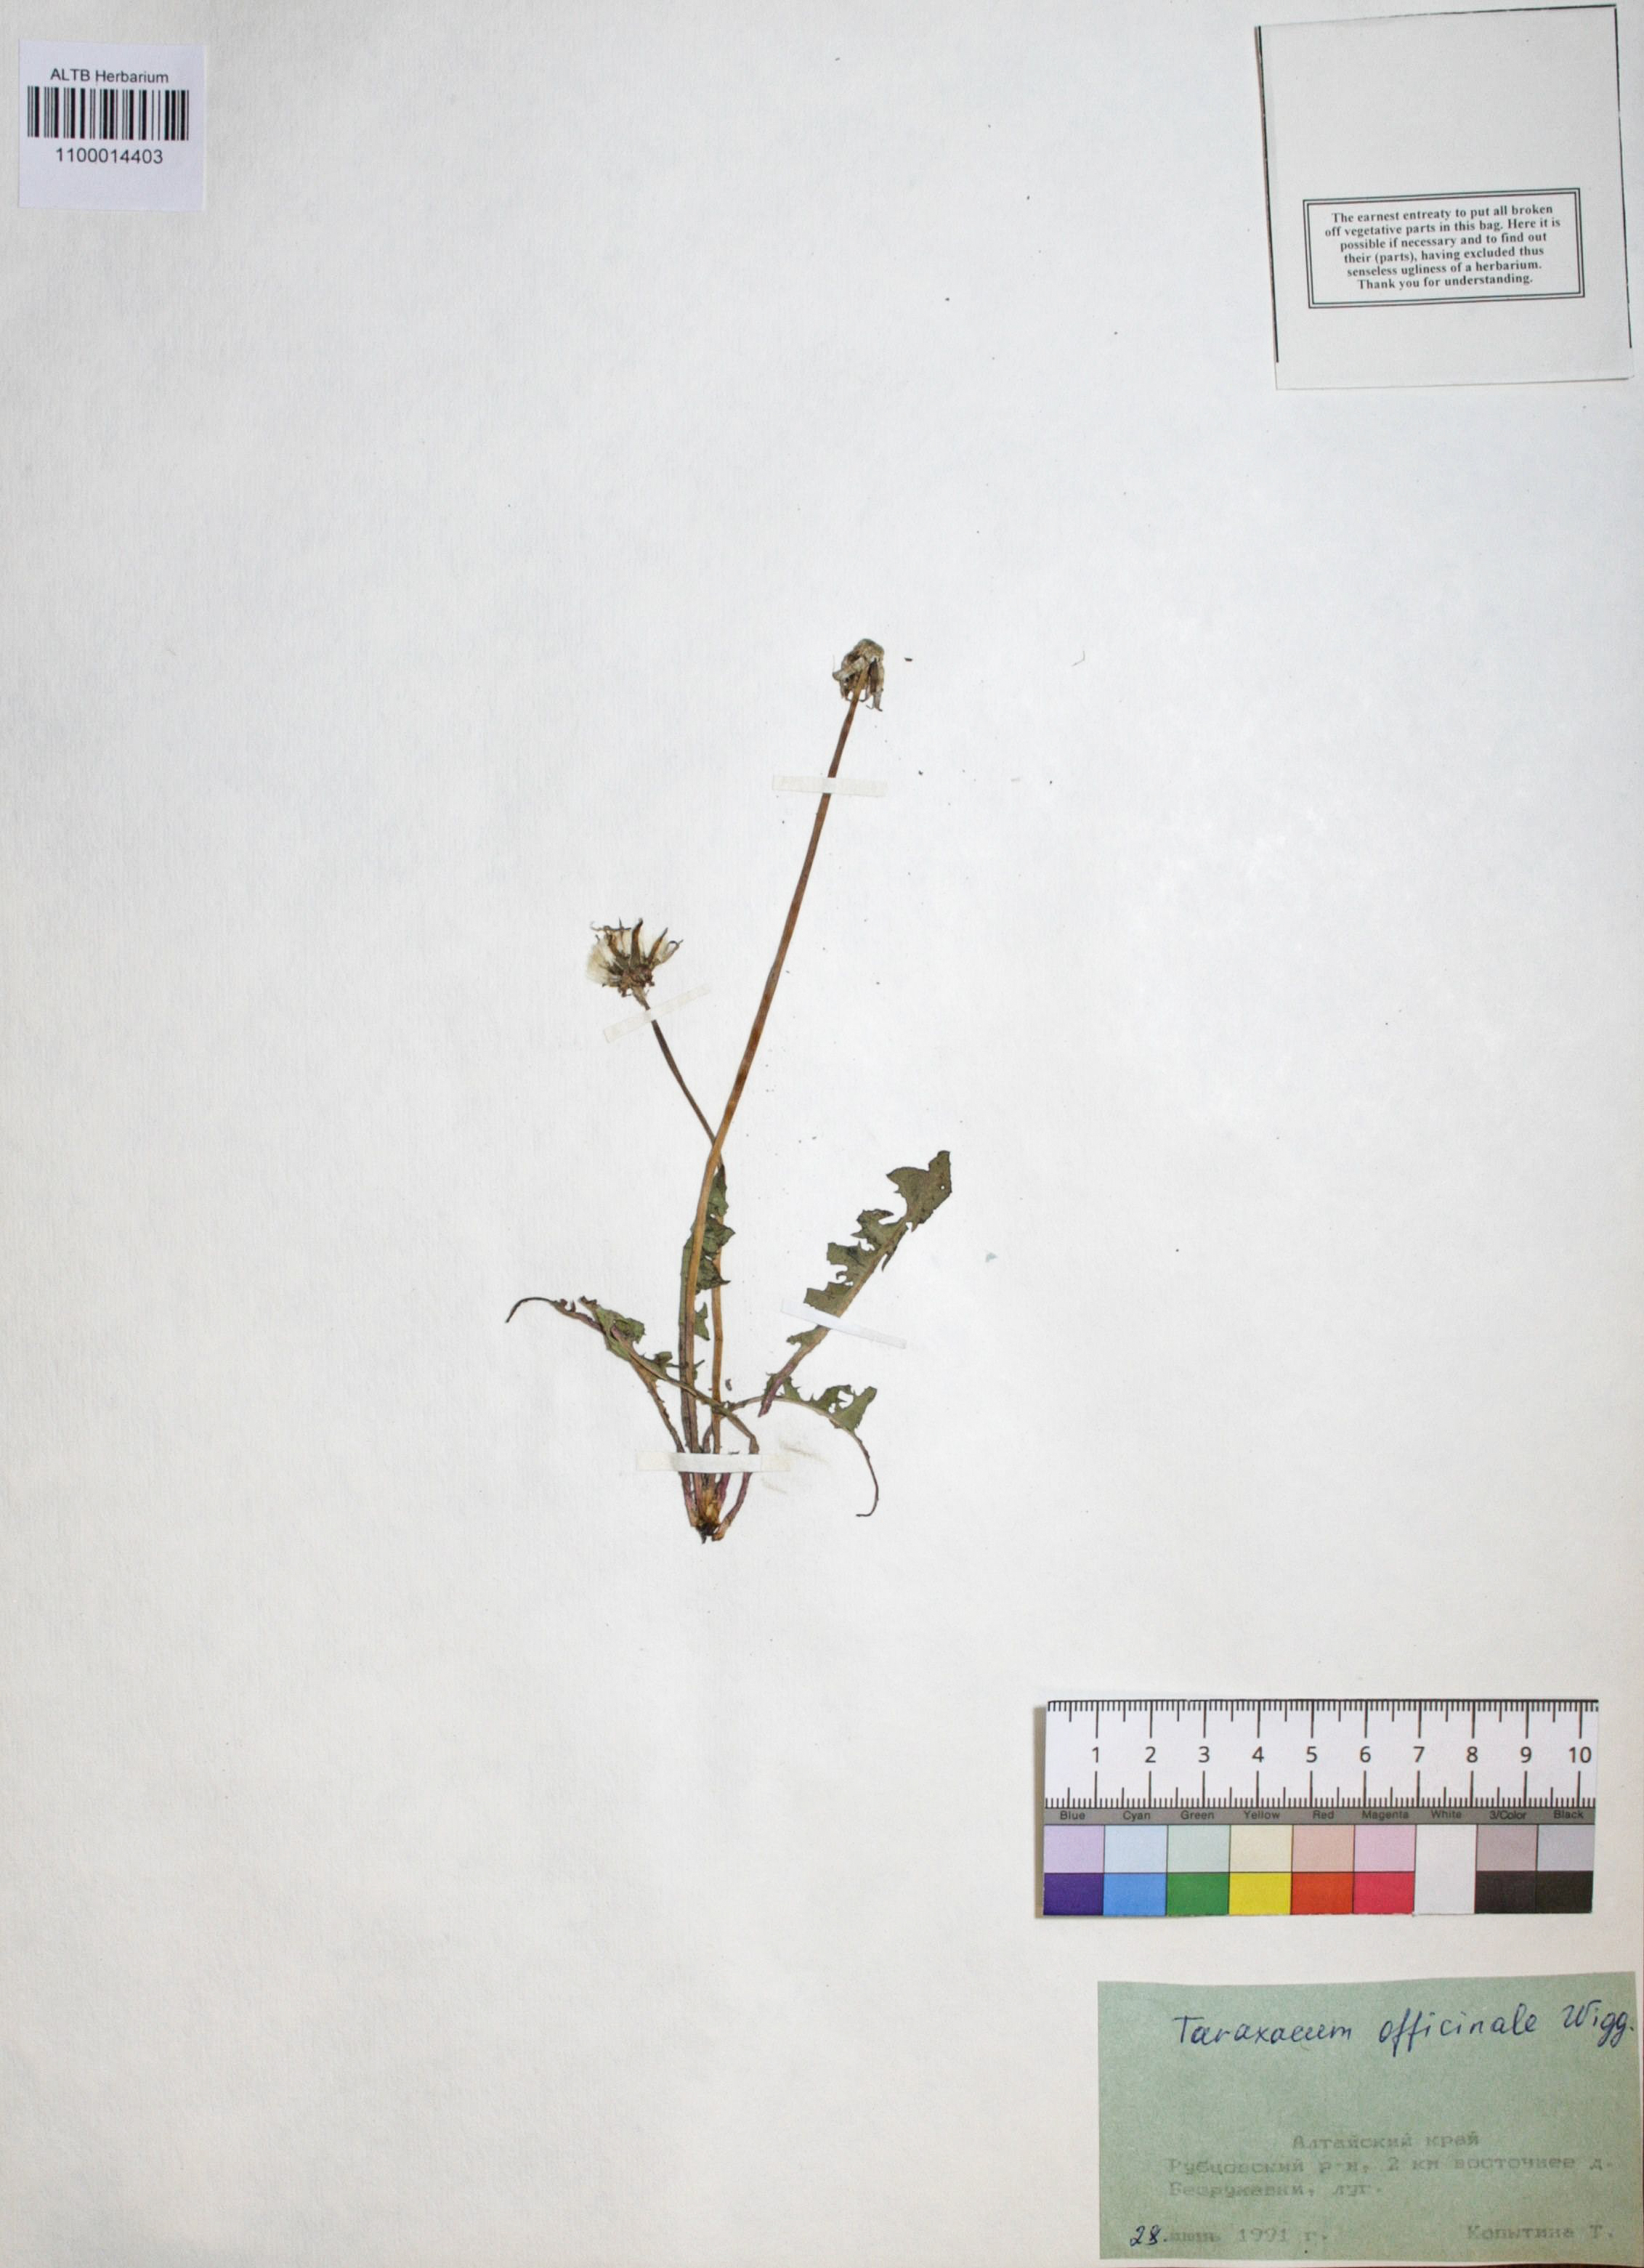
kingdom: Plantae
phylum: Tracheophyta
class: Magnoliopsida
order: Asterales
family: Asteraceae
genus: Taraxacum
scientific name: Taraxacum officinale
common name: Common dandelion
